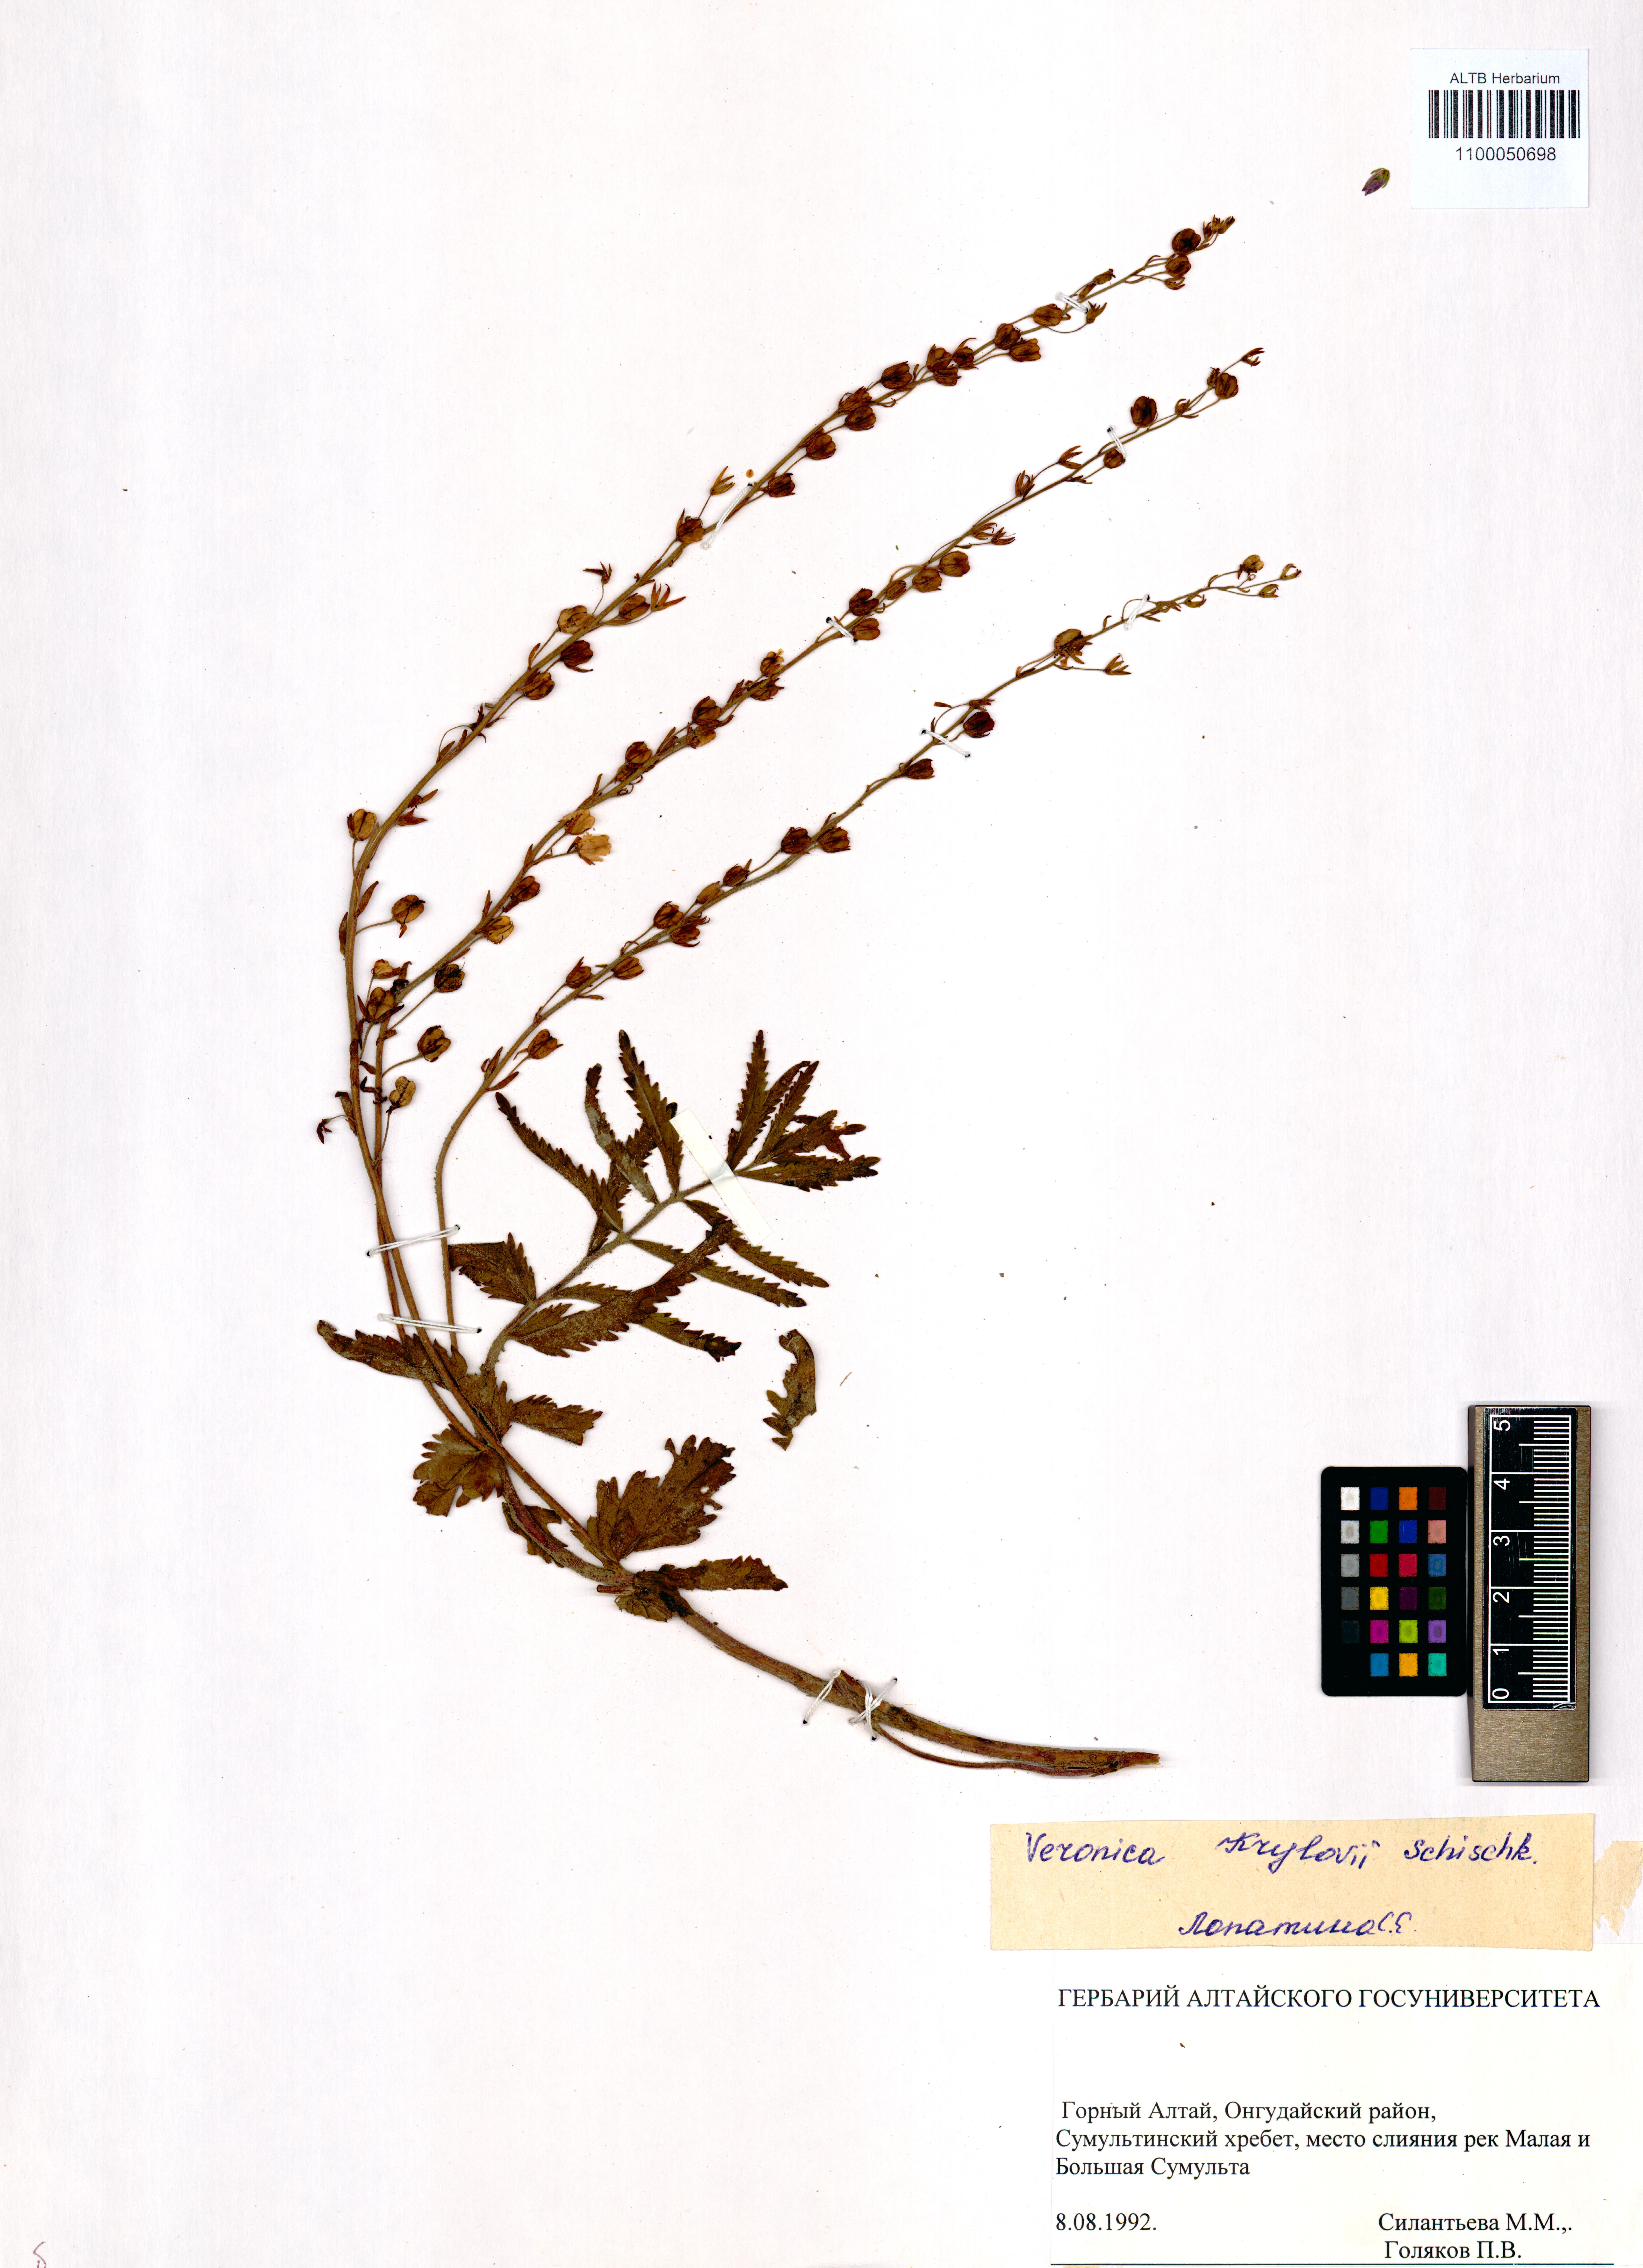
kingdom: Plantae
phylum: Tracheophyta
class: Magnoliopsida
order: Lamiales
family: Plantaginaceae
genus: Veronica
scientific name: Veronica krylovii
